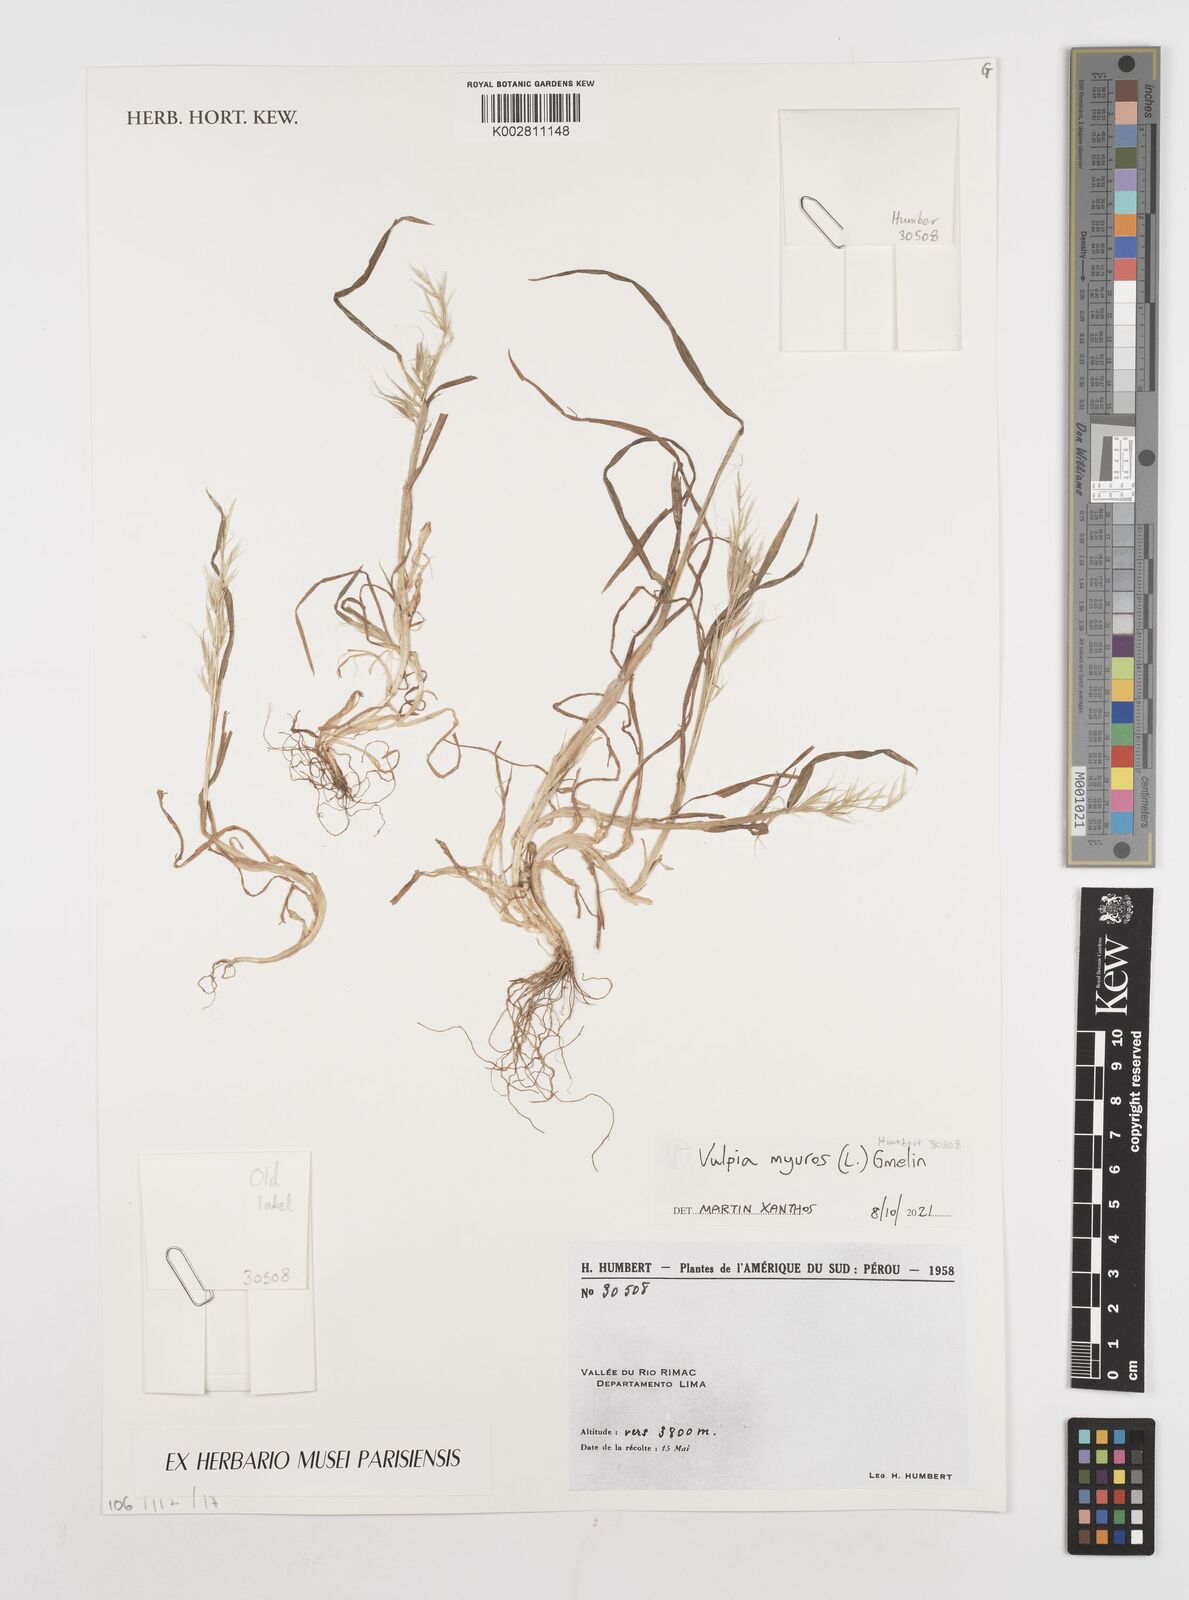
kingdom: Plantae
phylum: Tracheophyta
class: Liliopsida
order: Poales
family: Poaceae
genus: Festuca
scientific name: Festuca myuros
